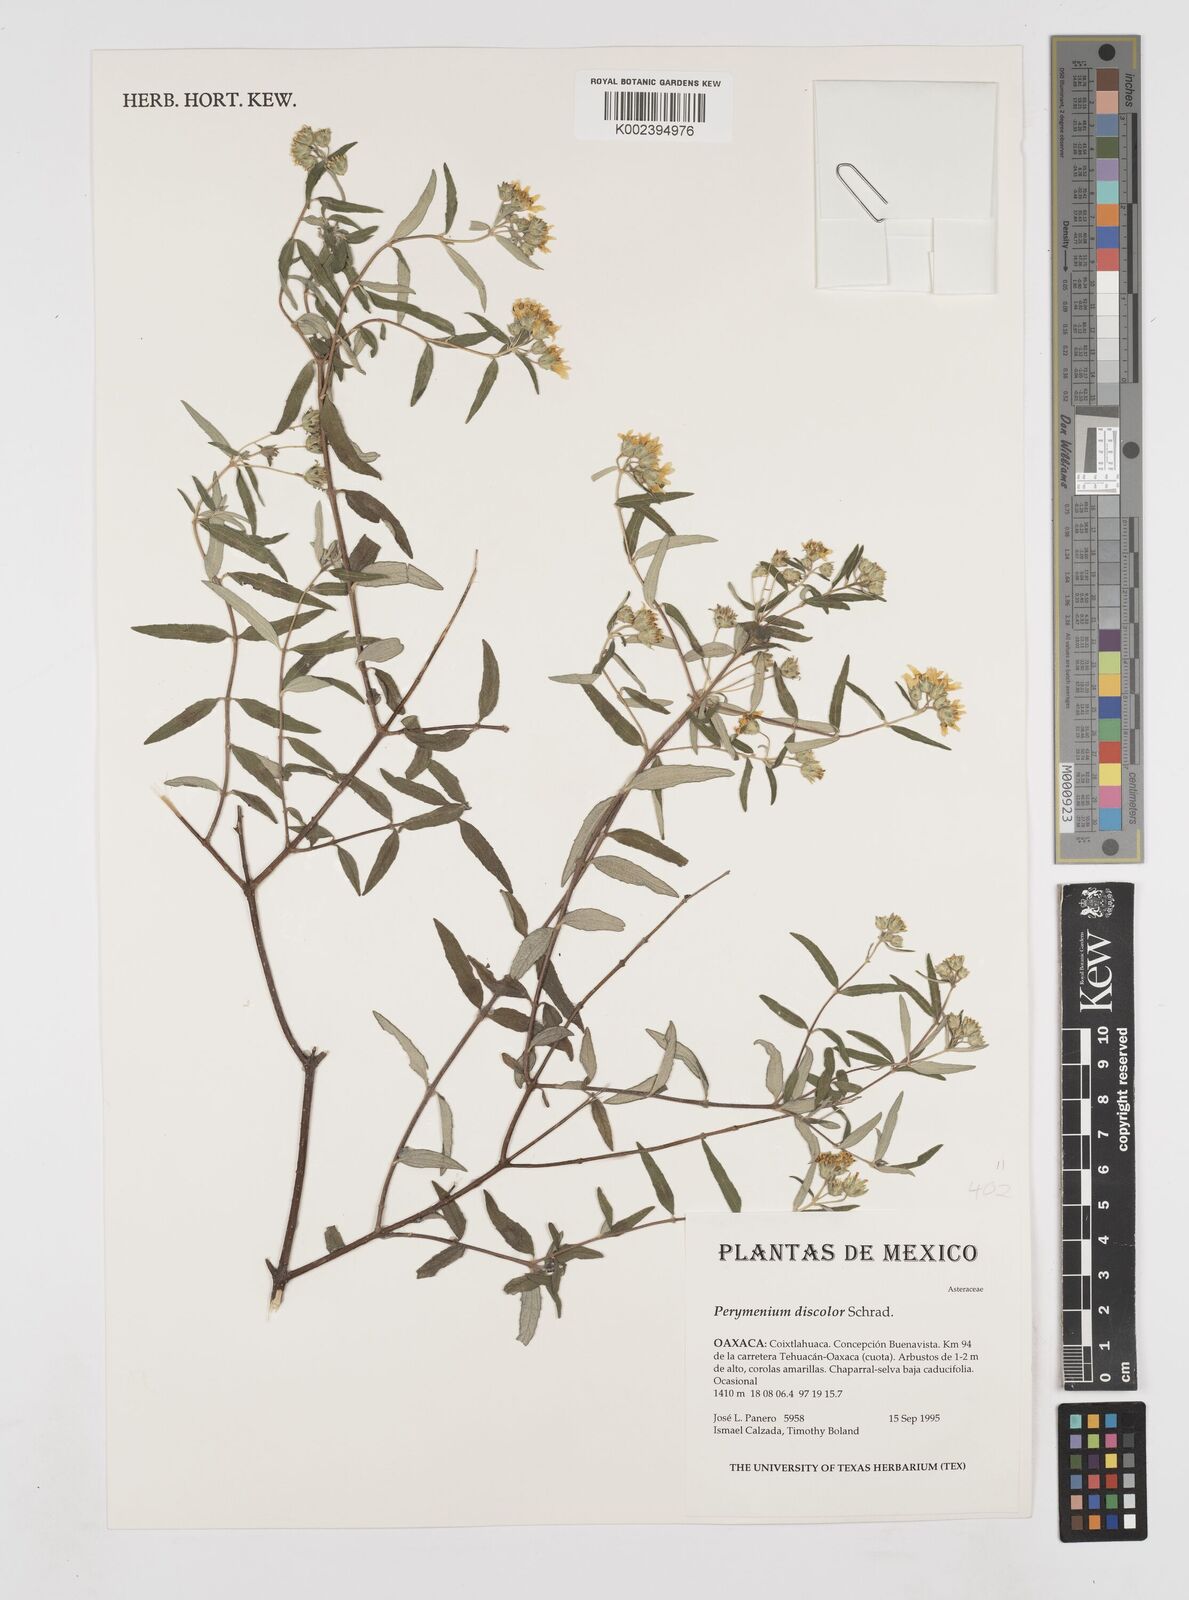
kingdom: Plantae
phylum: Tracheophyta
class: Magnoliopsida
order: Asterales
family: Asteraceae
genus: Perymenium
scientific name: Perymenium discolor
